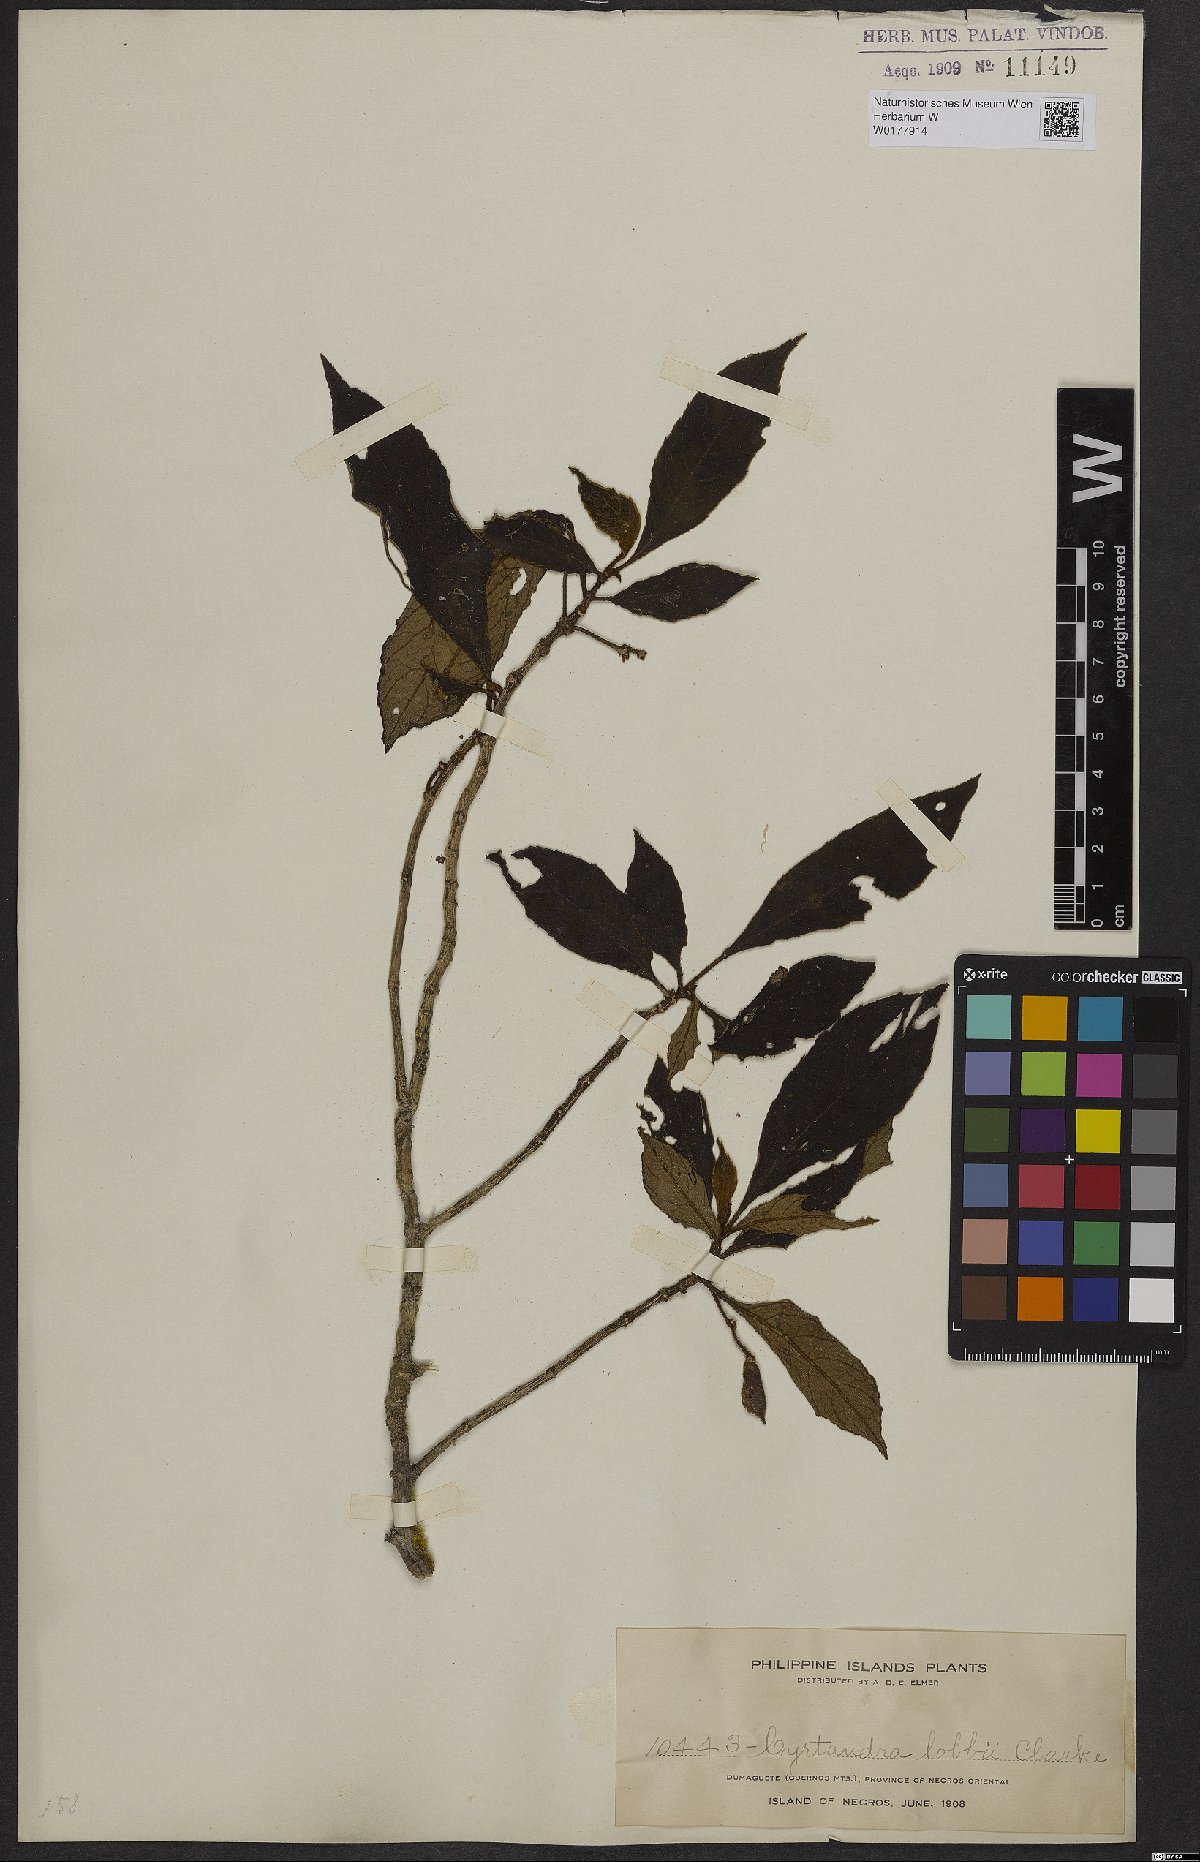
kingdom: Plantae
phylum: Tracheophyta
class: Magnoliopsida
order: Lamiales
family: Gesneriaceae
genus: Cyrtandra
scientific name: Cyrtandra
